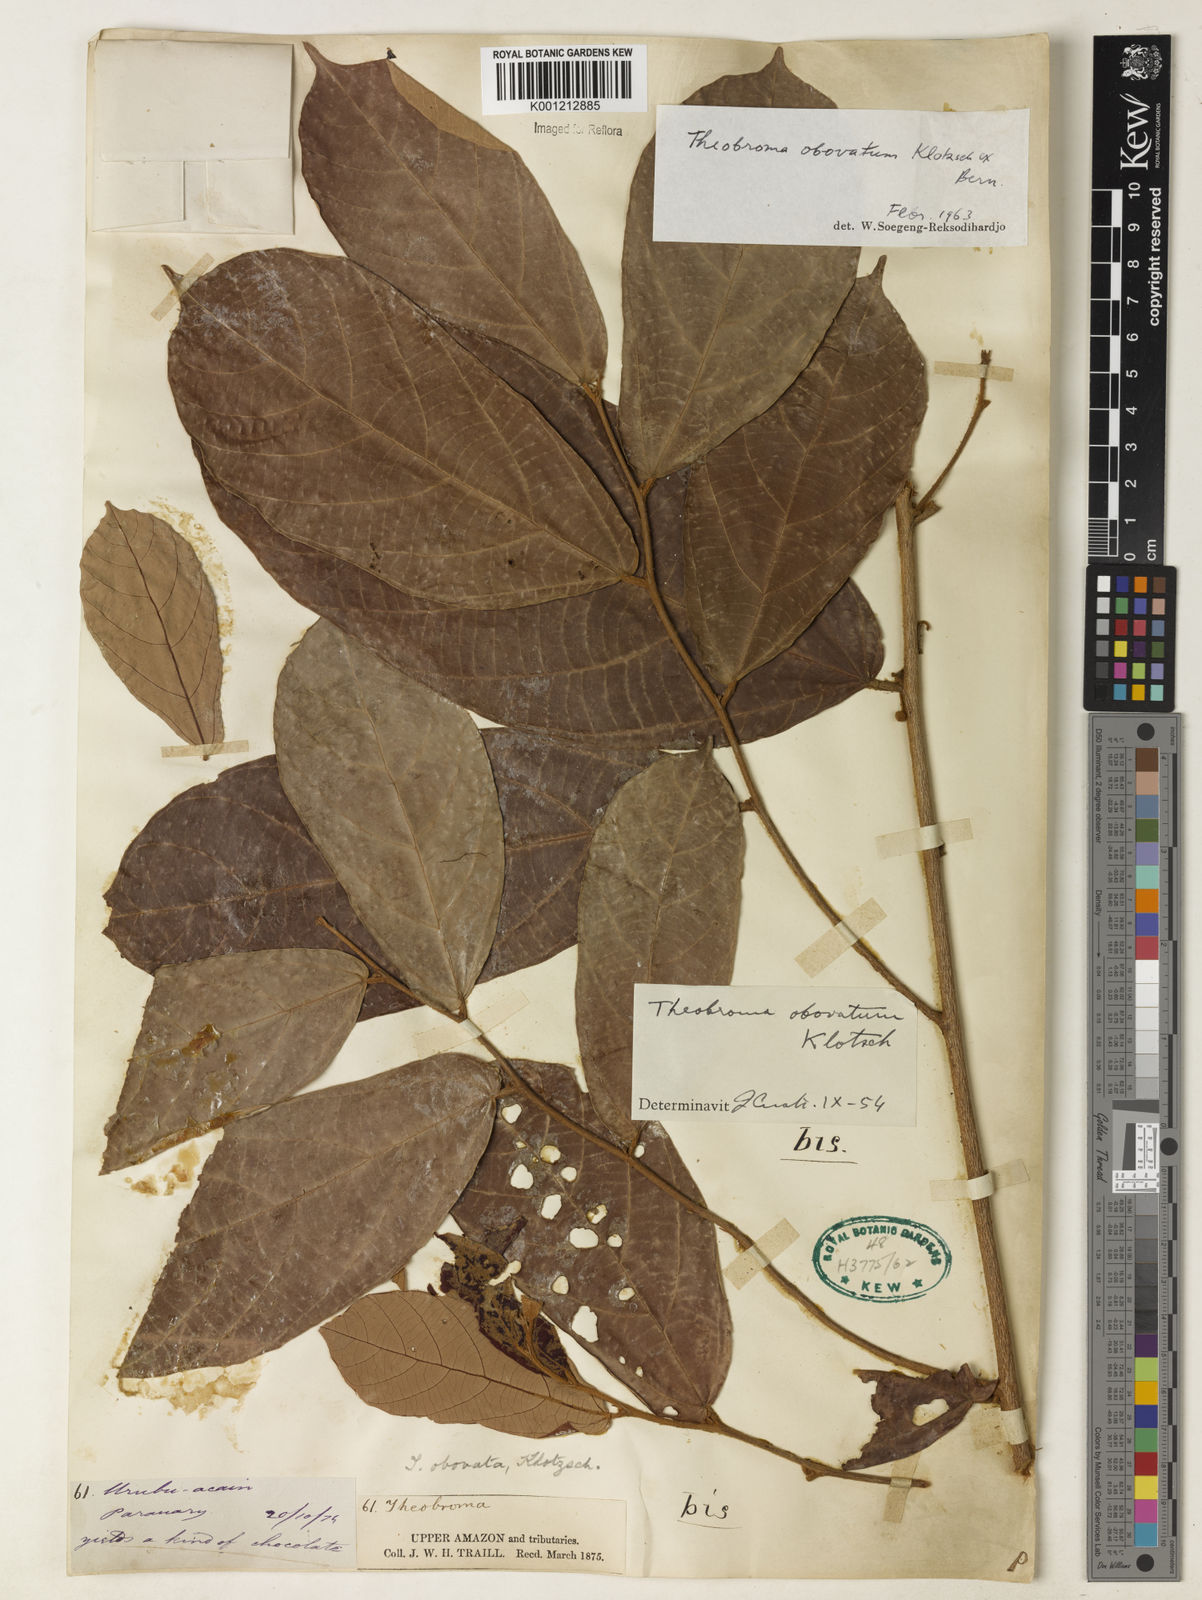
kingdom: Plantae
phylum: Tracheophyta
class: Magnoliopsida
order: Malvales
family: Malvaceae
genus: Theobroma
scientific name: Theobroma obovatum
